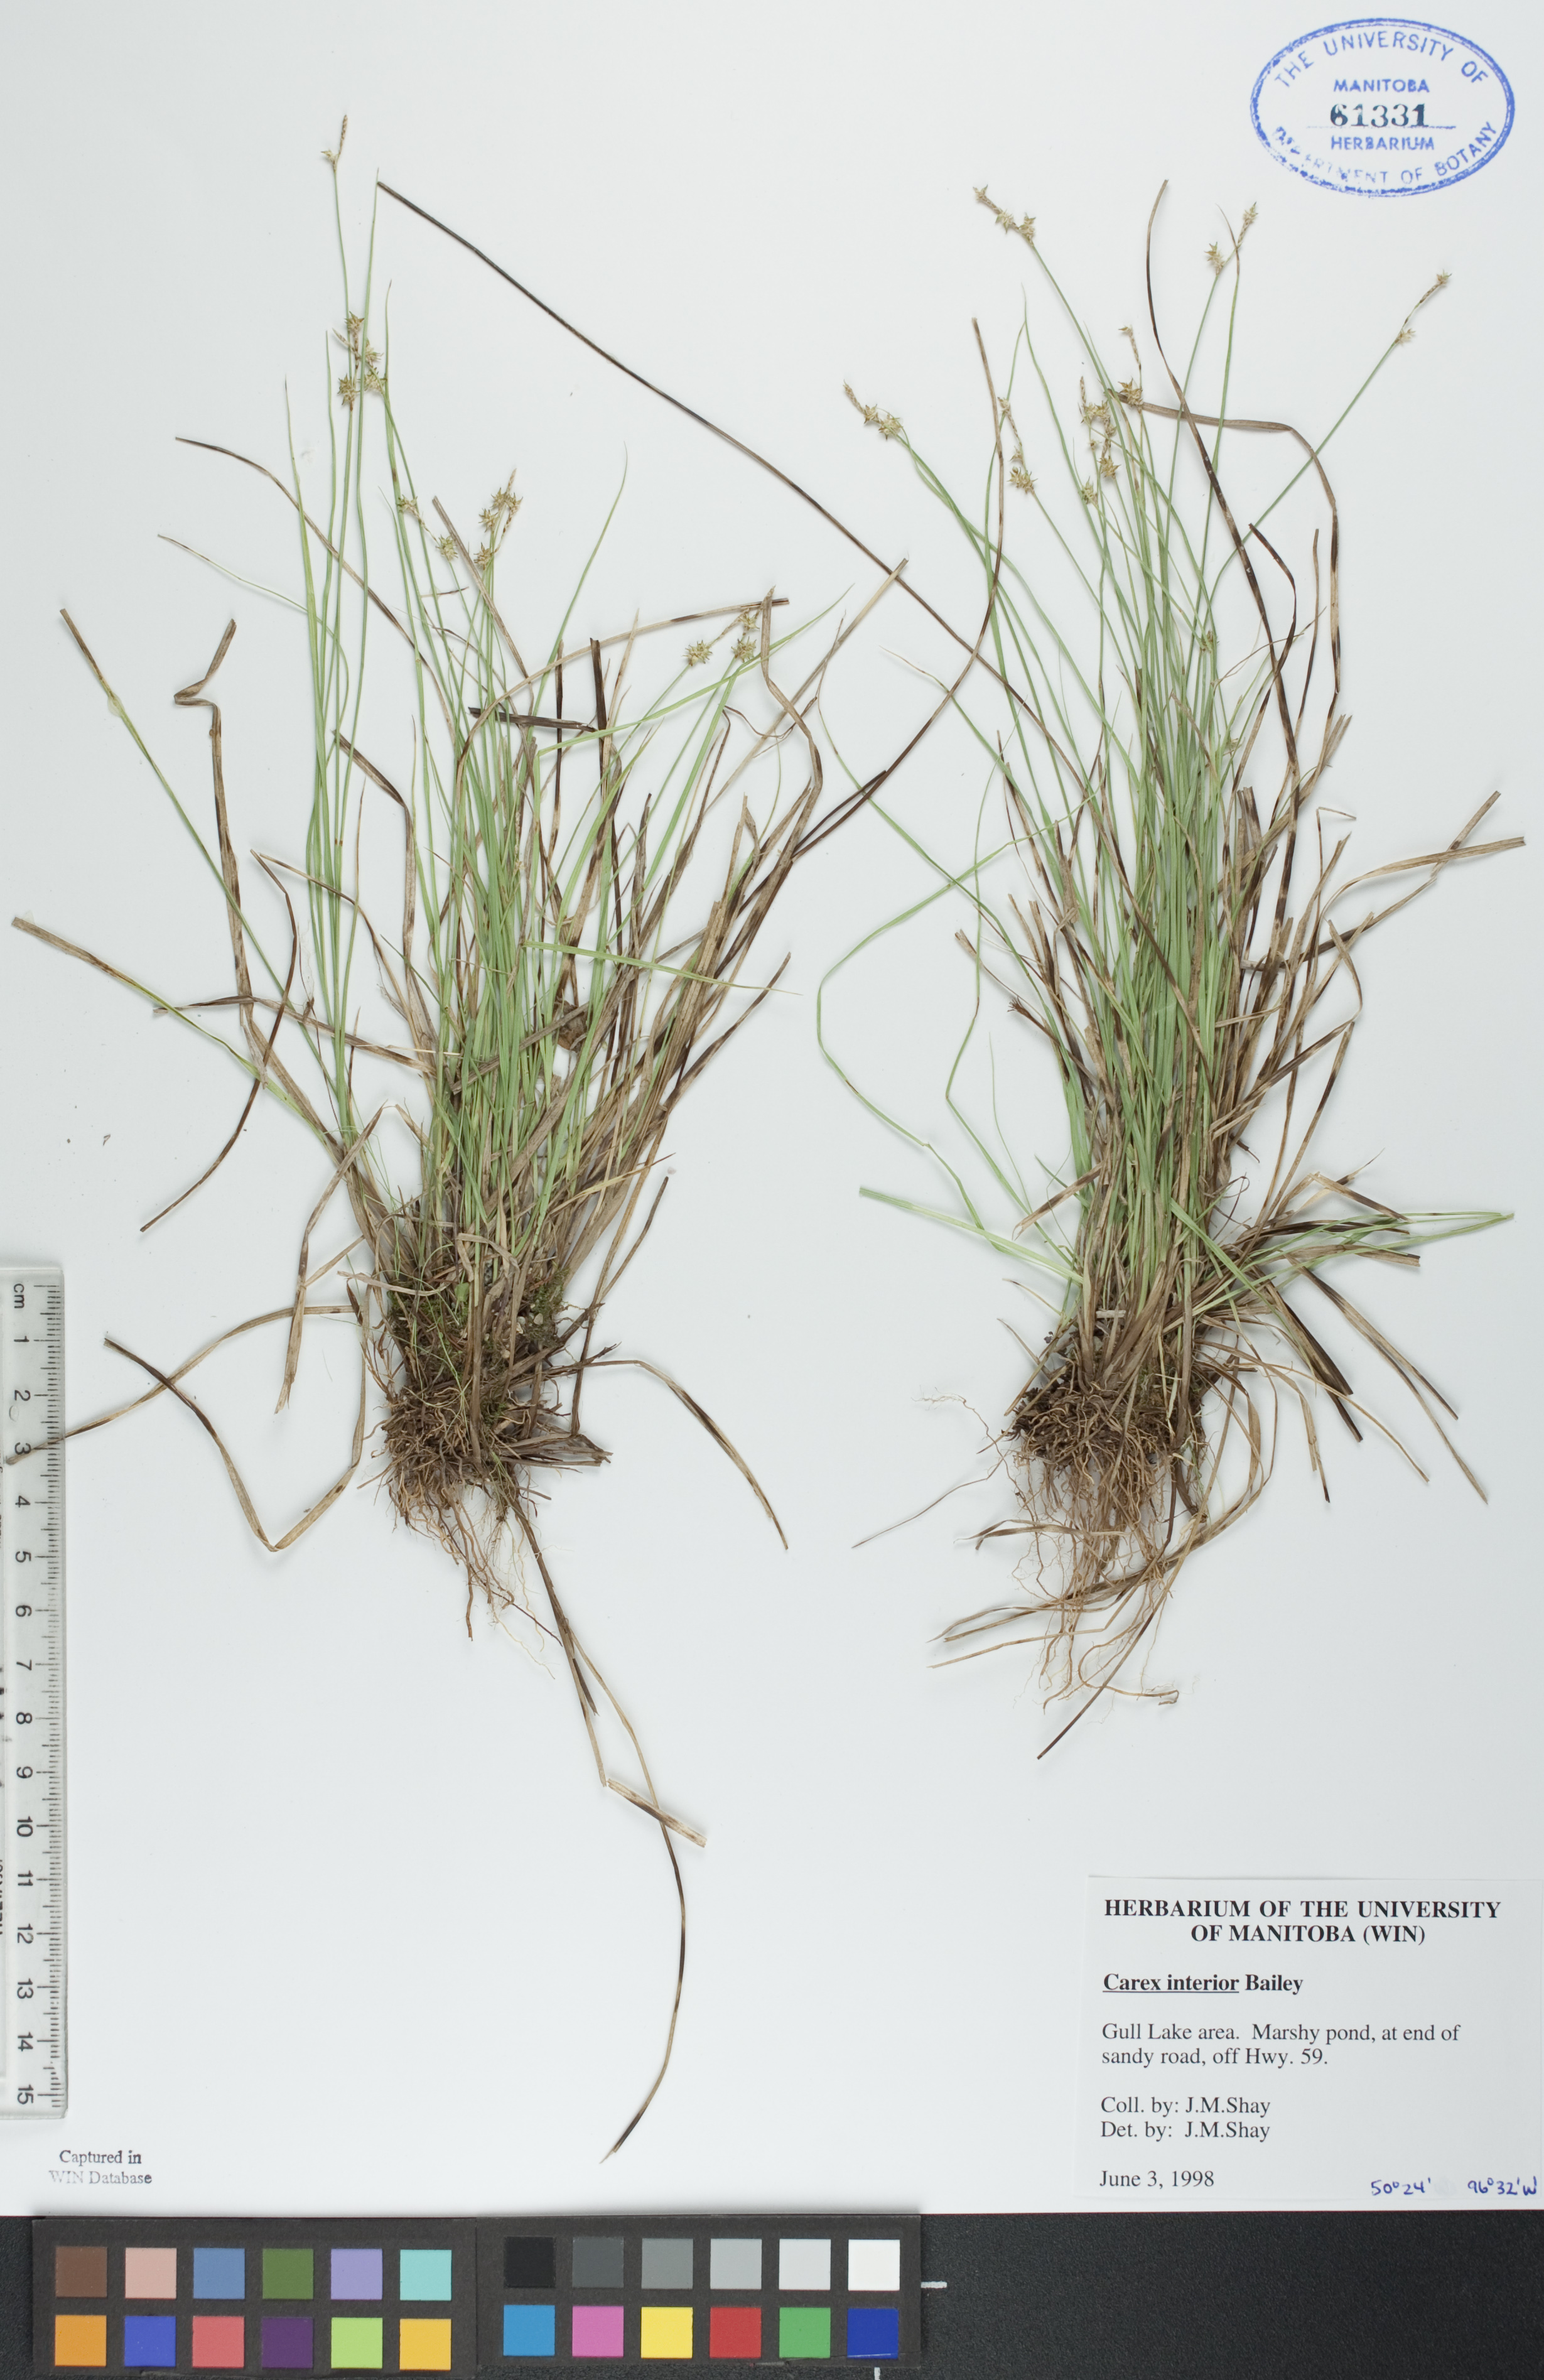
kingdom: Plantae
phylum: Tracheophyta
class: Liliopsida
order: Poales
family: Cyperaceae
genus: Carex
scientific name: Carex interior
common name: Inland sedge
